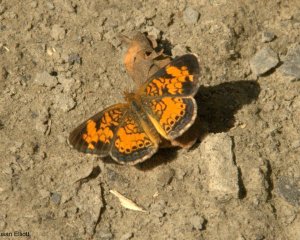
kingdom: Animalia
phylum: Arthropoda
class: Insecta
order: Lepidoptera
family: Nymphalidae
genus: Phyciodes
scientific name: Phyciodes
